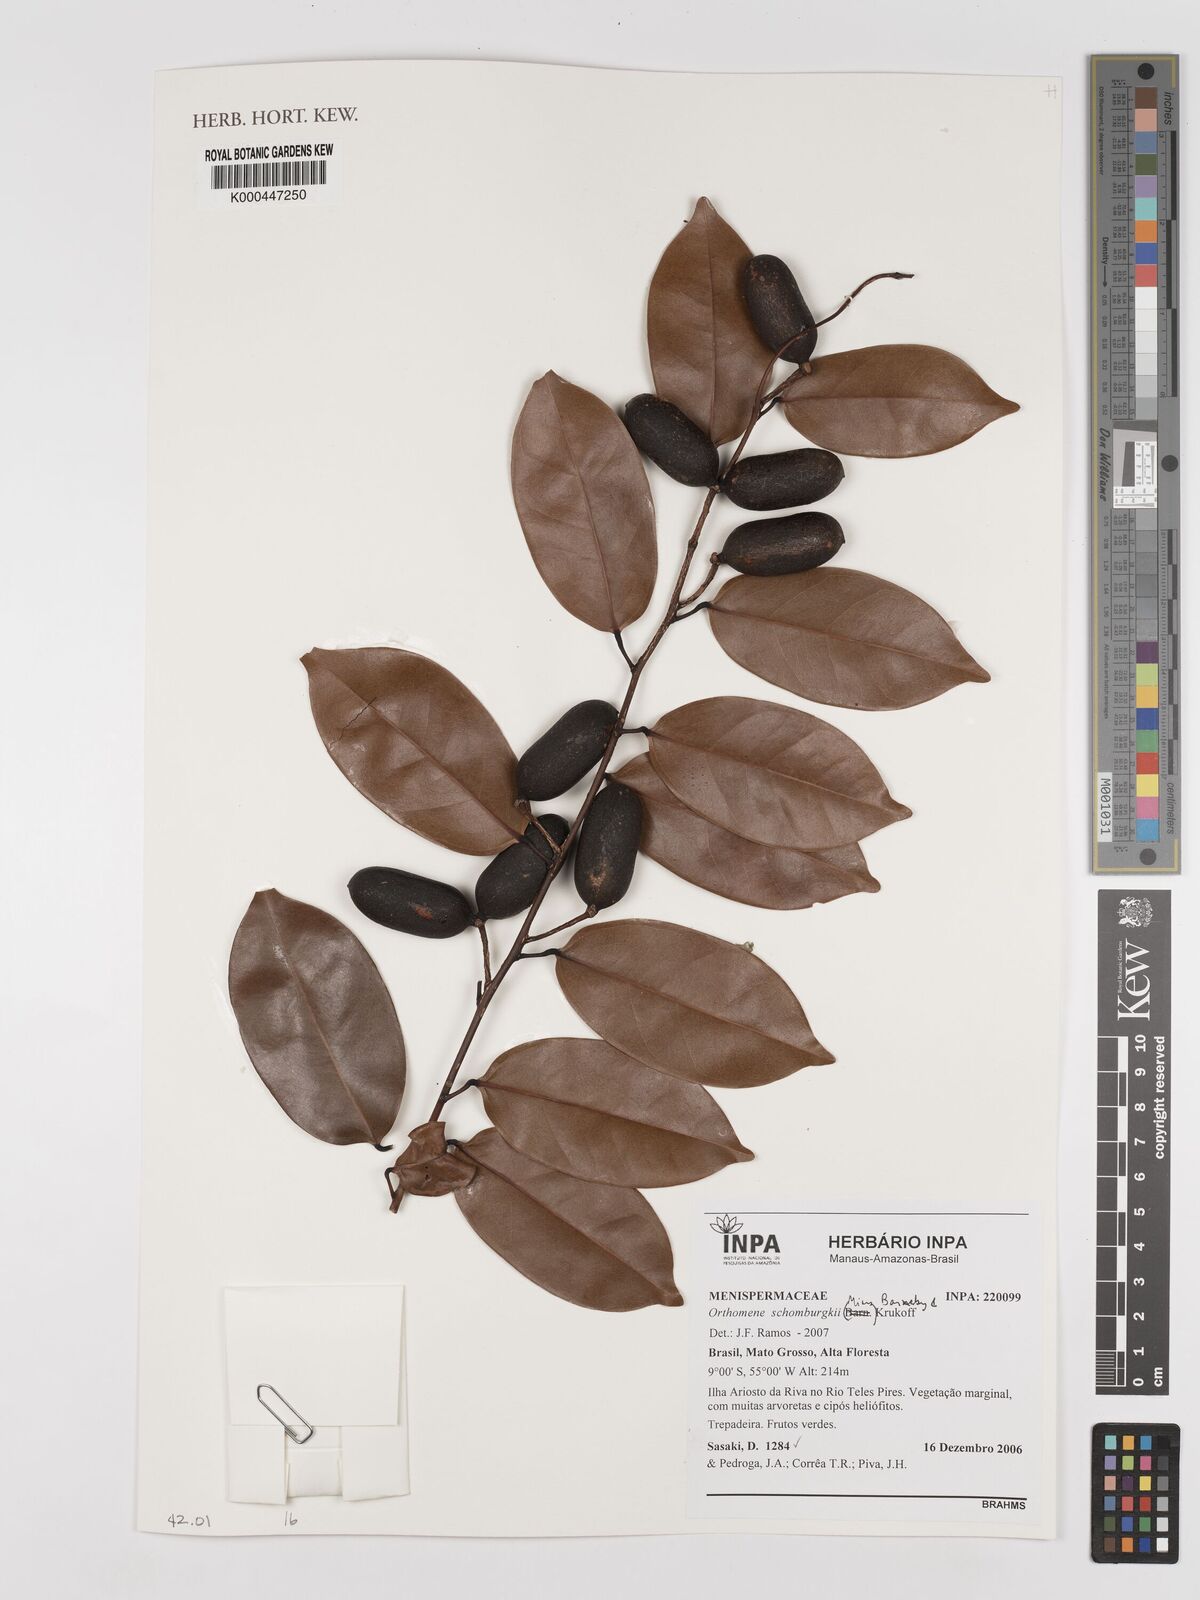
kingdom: Plantae
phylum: Tracheophyta
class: Magnoliopsida
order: Ranunculales
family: Menispermaceae
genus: Orthomene
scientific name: Orthomene schomburgkii
